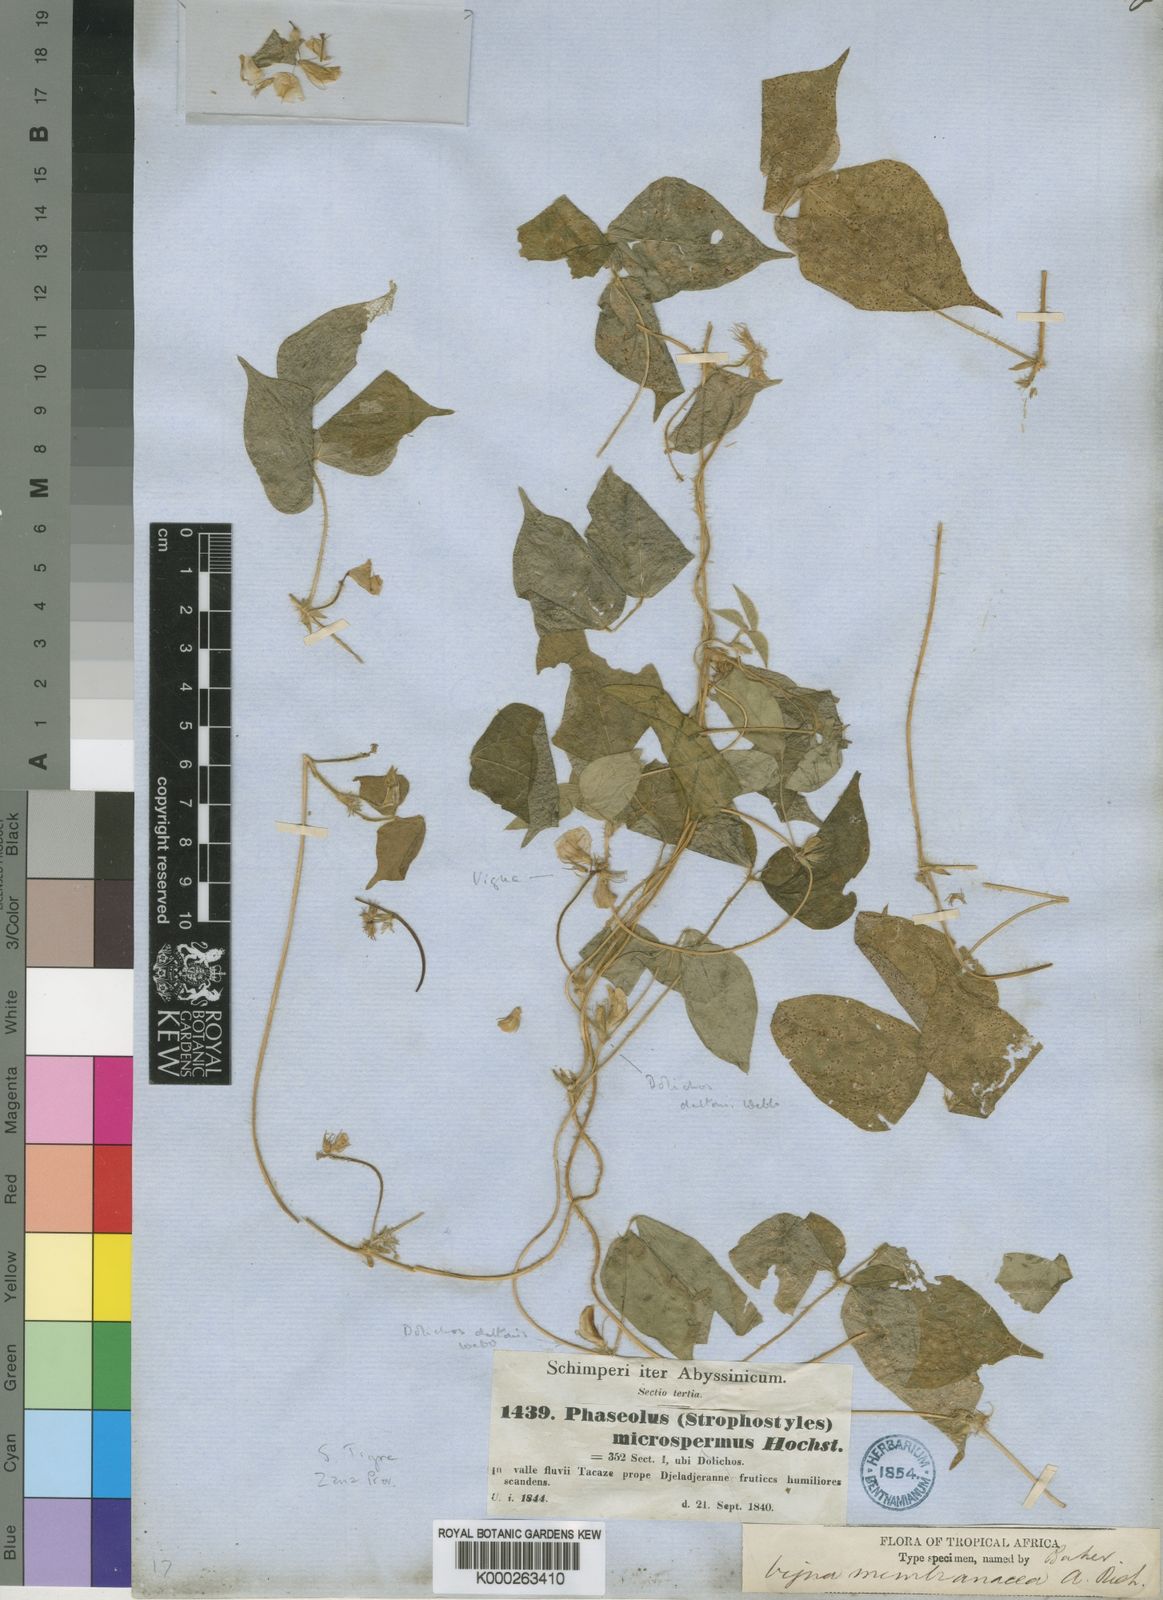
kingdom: Plantae
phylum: Tracheophyta
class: Magnoliopsida
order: Fabales
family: Fabaceae
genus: Vigna
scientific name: Vigna membranacea
